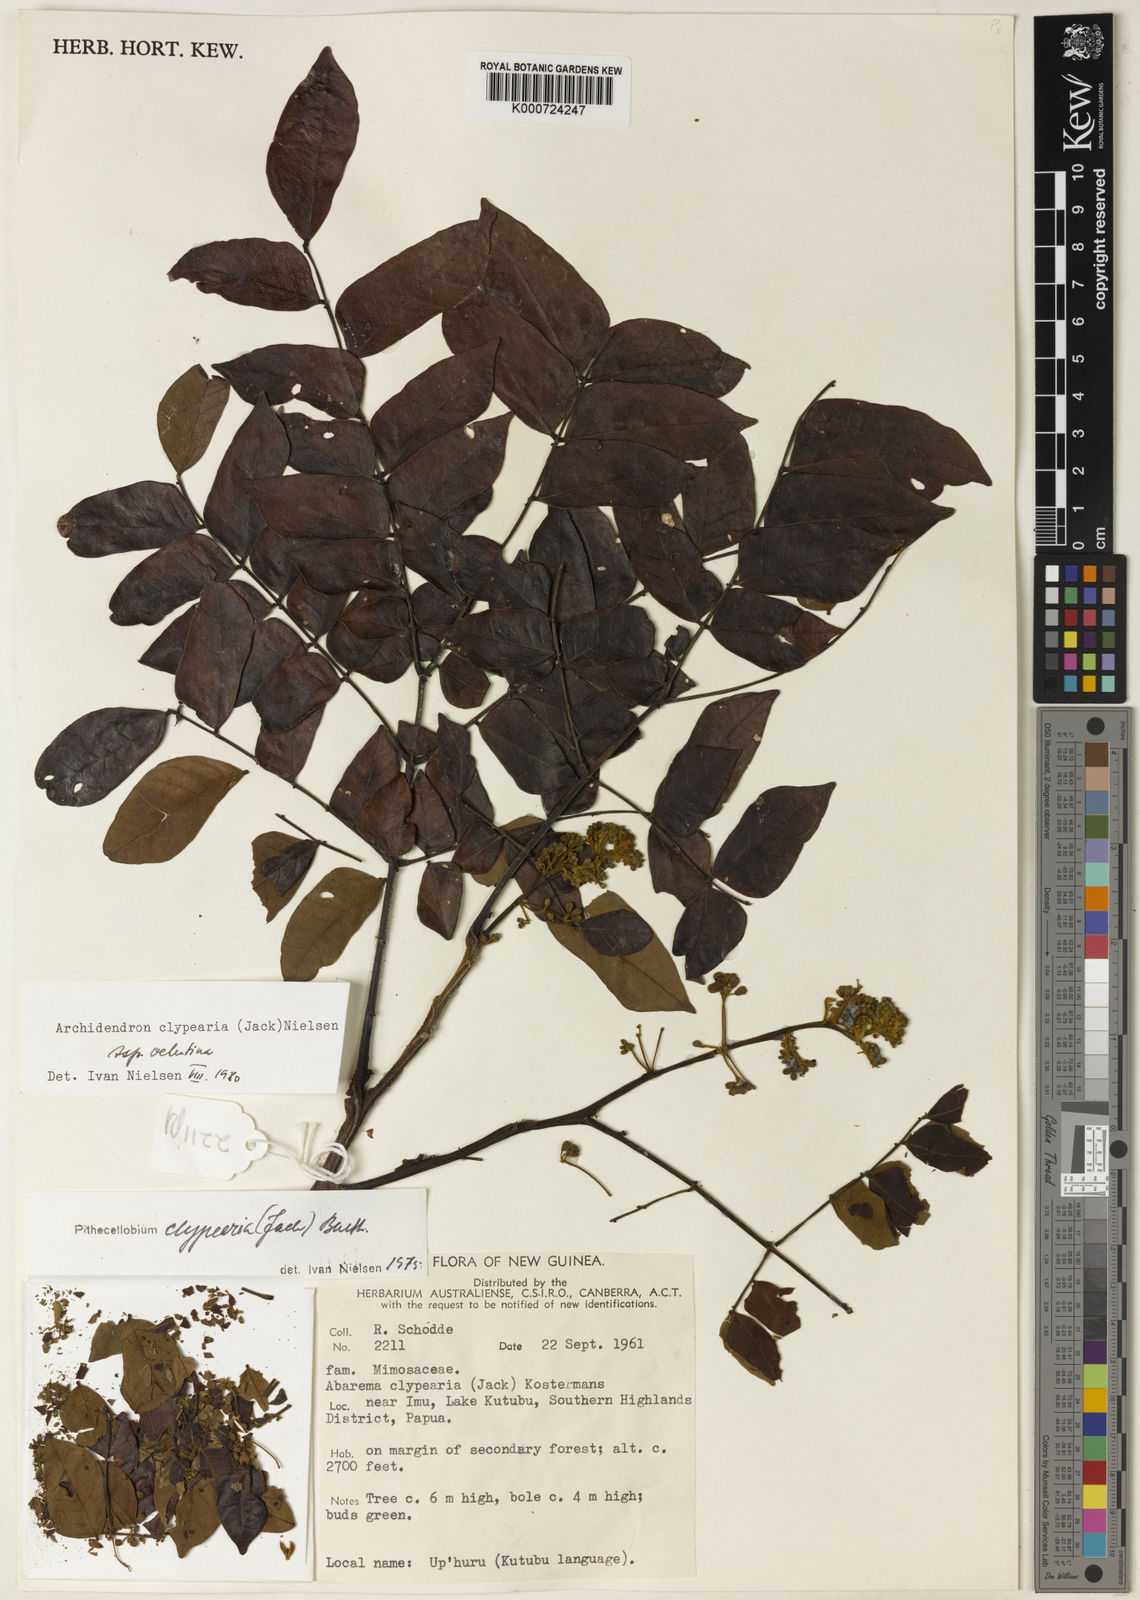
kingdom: Plantae
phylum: Tracheophyta
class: Magnoliopsida
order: Fabales
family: Fabaceae
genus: Archidendron
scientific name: Archidendron clypearia
